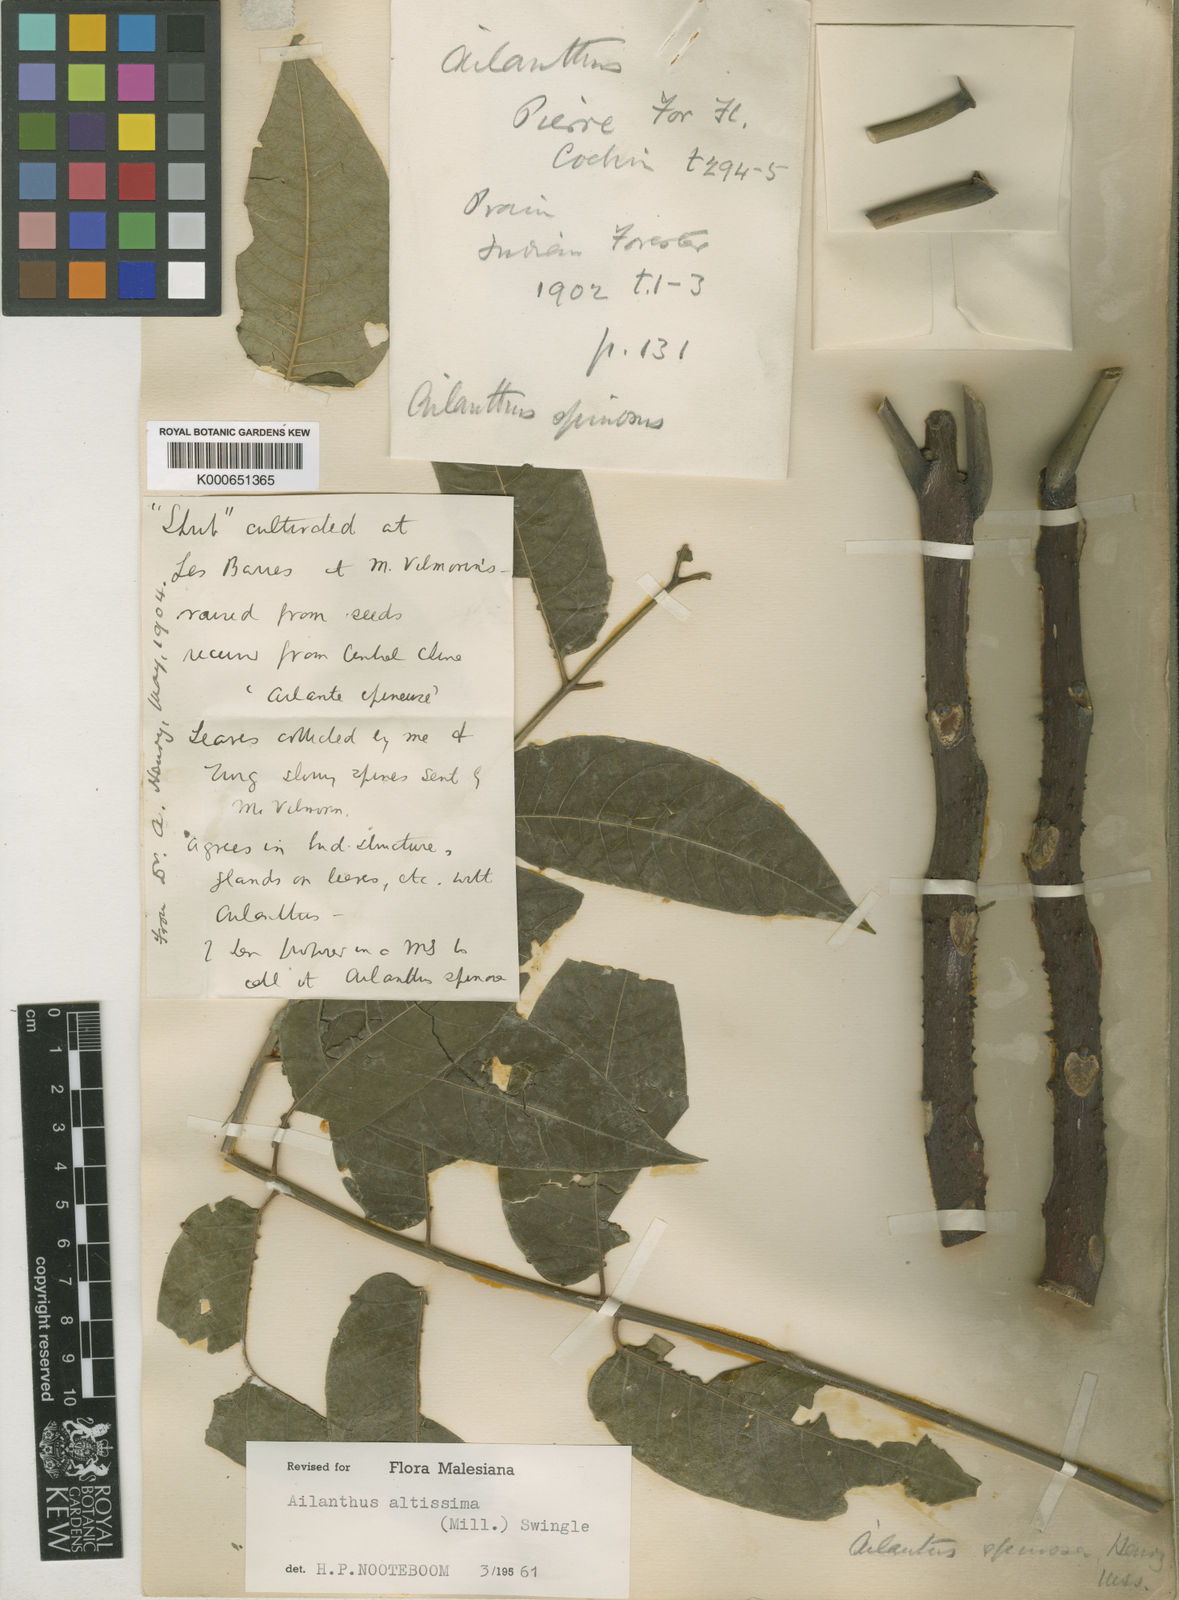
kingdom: Plantae
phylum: Tracheophyta
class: Magnoliopsida
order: Sapindales
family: Simaroubaceae
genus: Ailanthus
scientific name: Ailanthus altissima
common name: Tree-of-heaven
